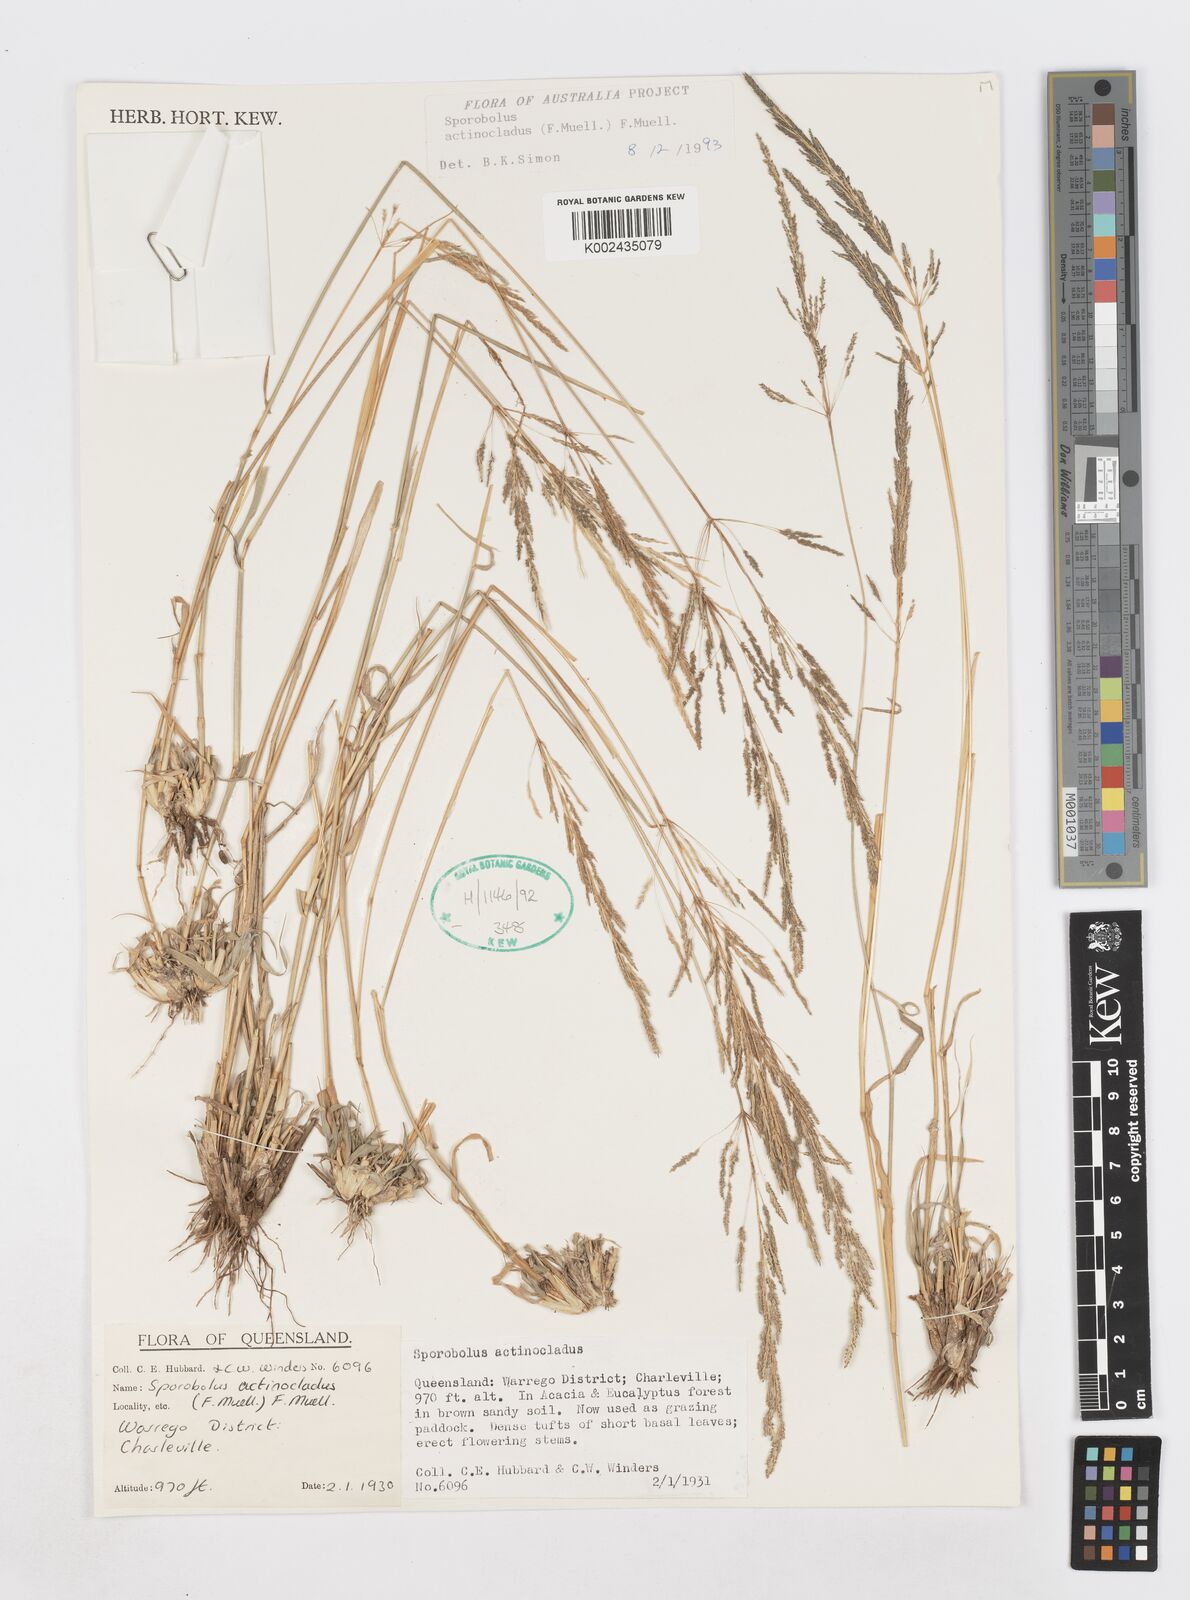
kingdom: Plantae
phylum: Tracheophyta
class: Liliopsida
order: Poales
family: Poaceae
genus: Sporobolus
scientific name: Sporobolus actinocladus
